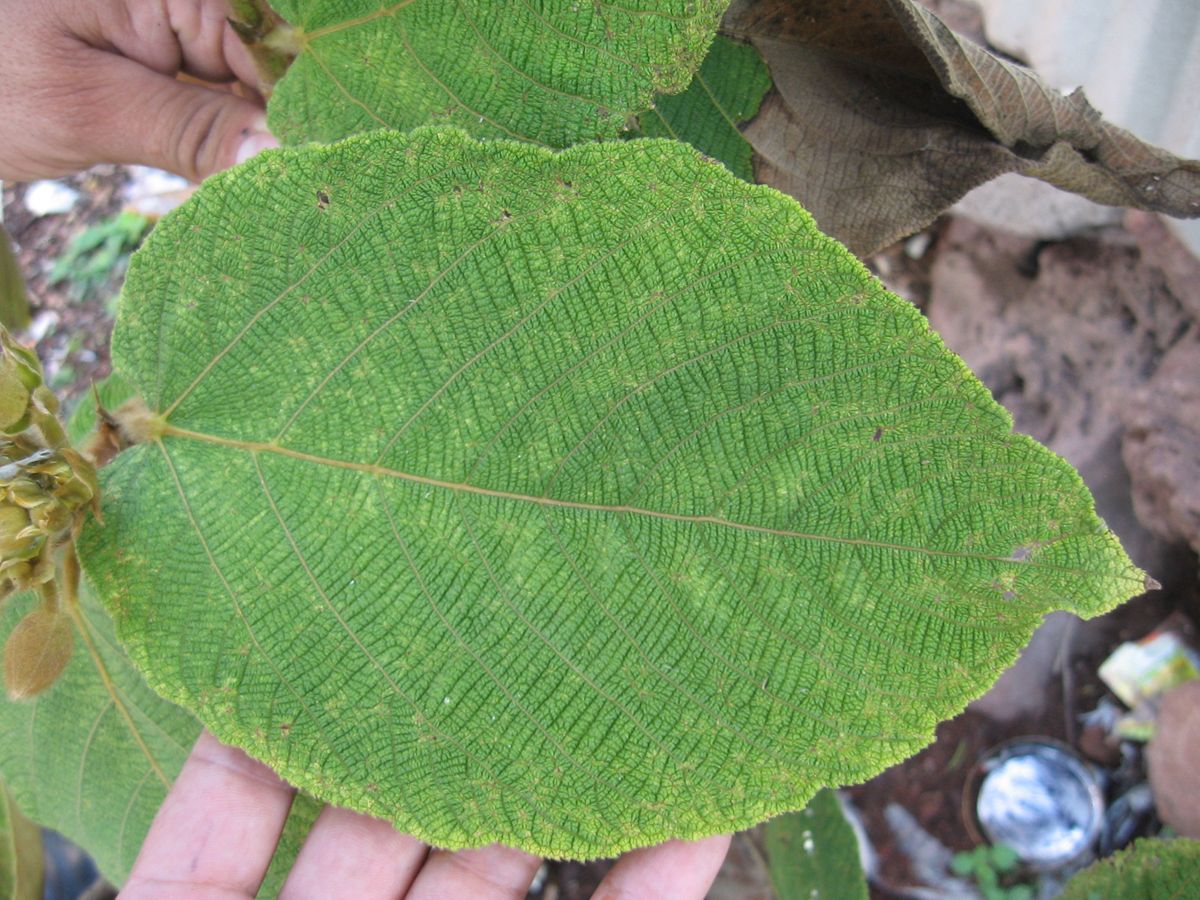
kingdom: Plantae
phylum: Tracheophyta
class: Magnoliopsida
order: Malvales
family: Malvaceae
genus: Apeiba
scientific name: Apeiba tibourbou
